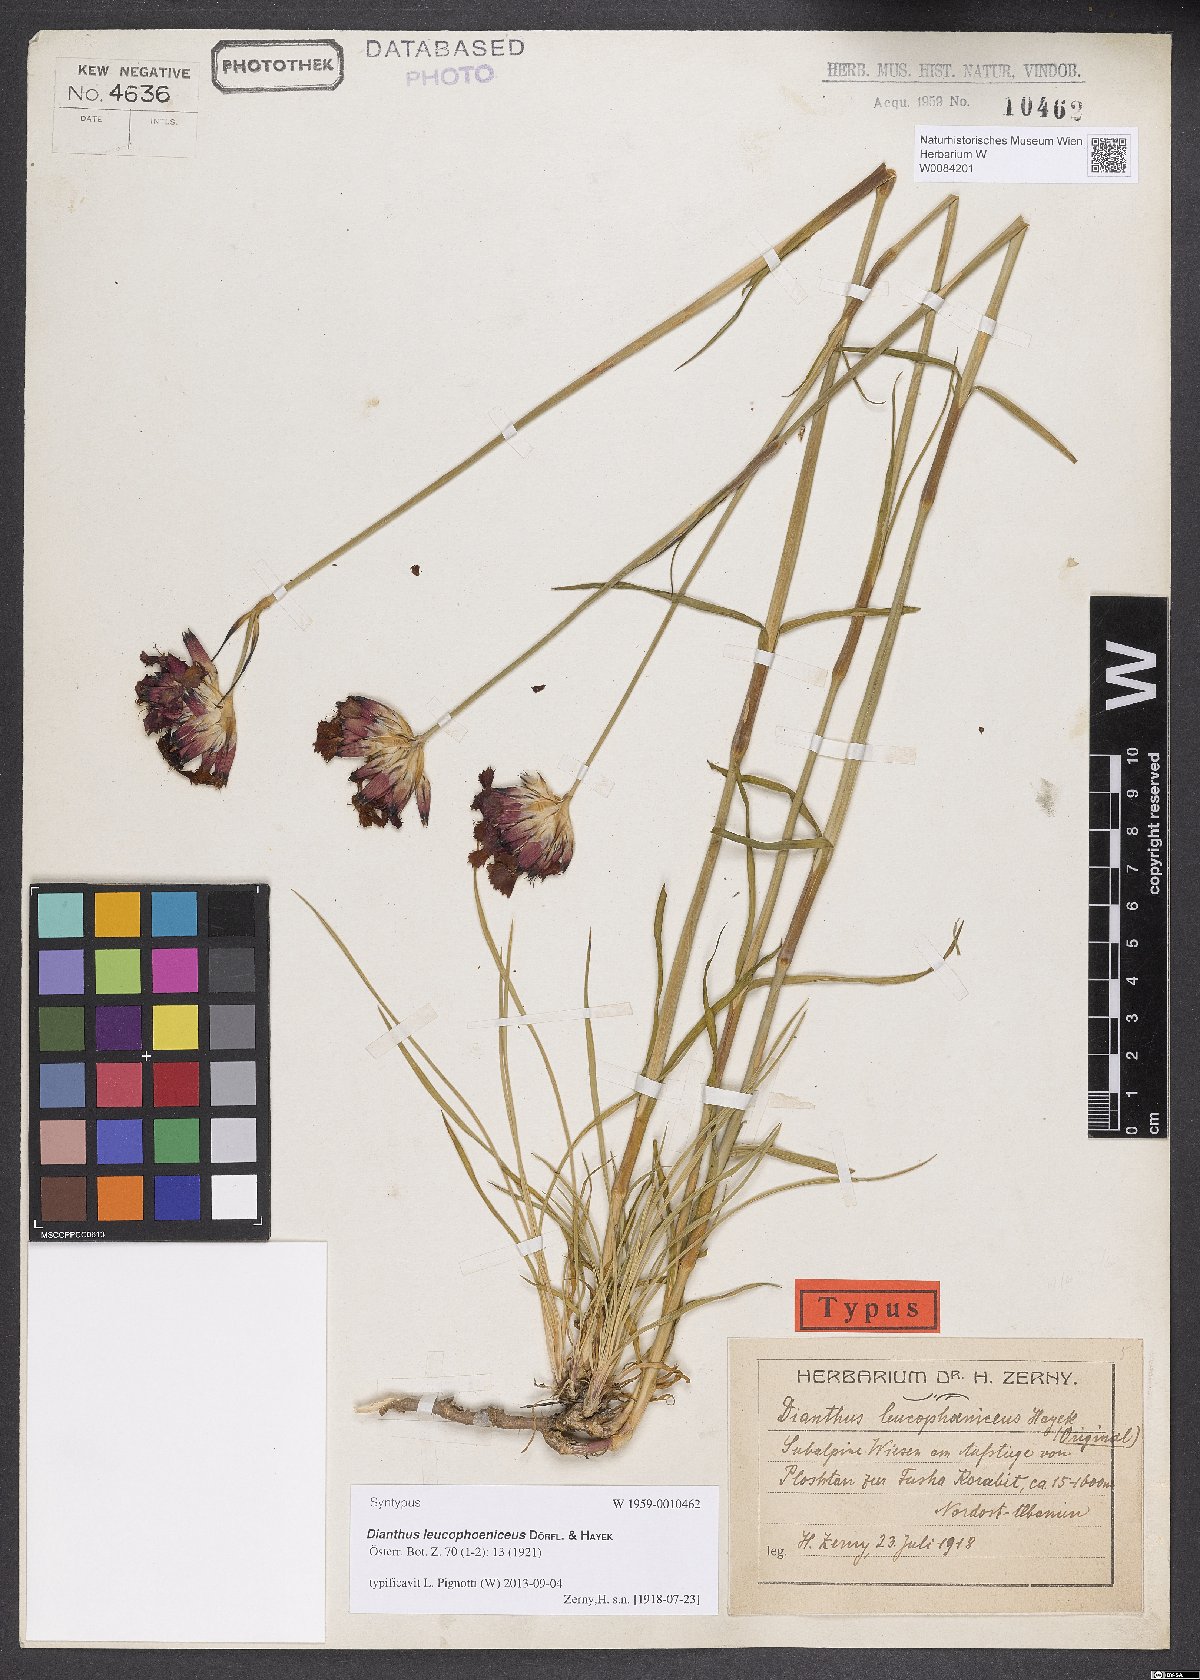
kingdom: Plantae
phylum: Tracheophyta
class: Magnoliopsida
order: Caryophyllales
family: Caryophyllaceae
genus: Dianthus
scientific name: Dianthus leucophoeniceus
